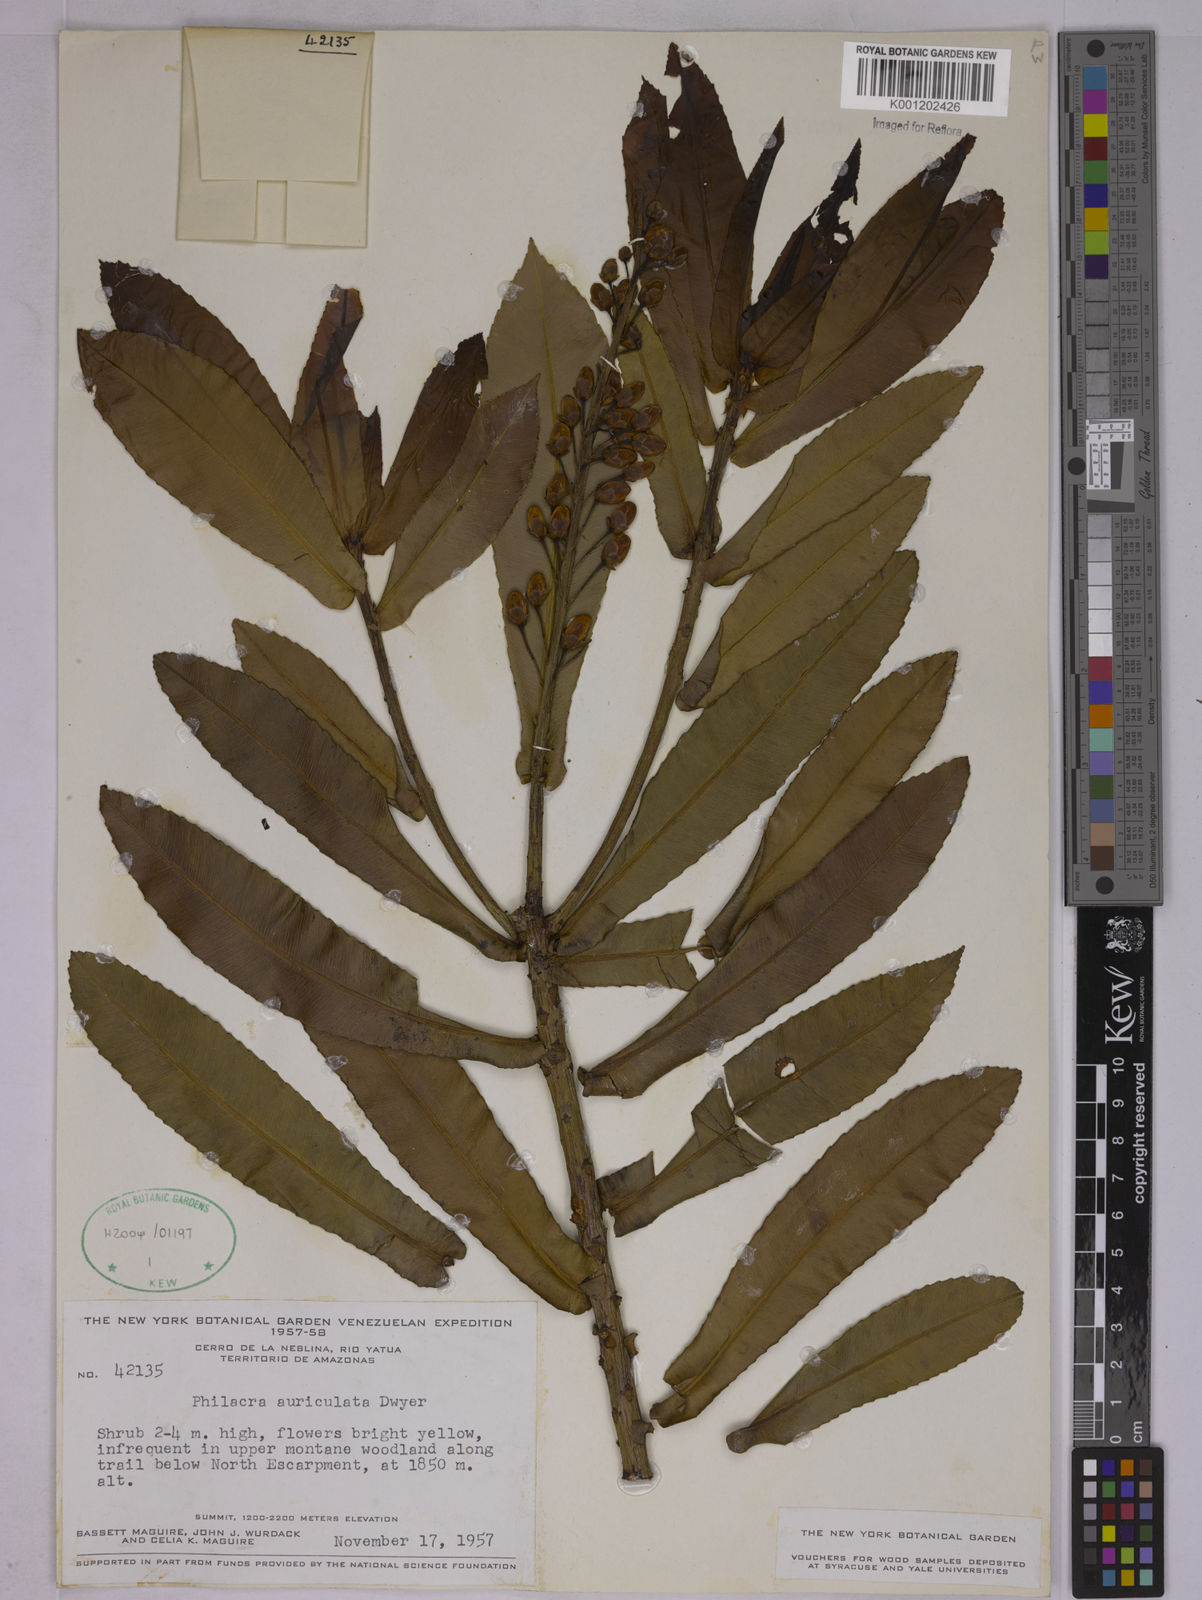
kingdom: Plantae
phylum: Tracheophyta
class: Magnoliopsida
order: Malpighiales
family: Ochnaceae
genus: Philacra
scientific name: Philacra auriculata
